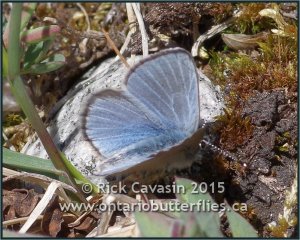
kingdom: Animalia
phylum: Arthropoda
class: Insecta
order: Lepidoptera
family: Lycaenidae
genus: Glaucopsyche
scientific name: Glaucopsyche lygdamus
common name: Silvery Blue
